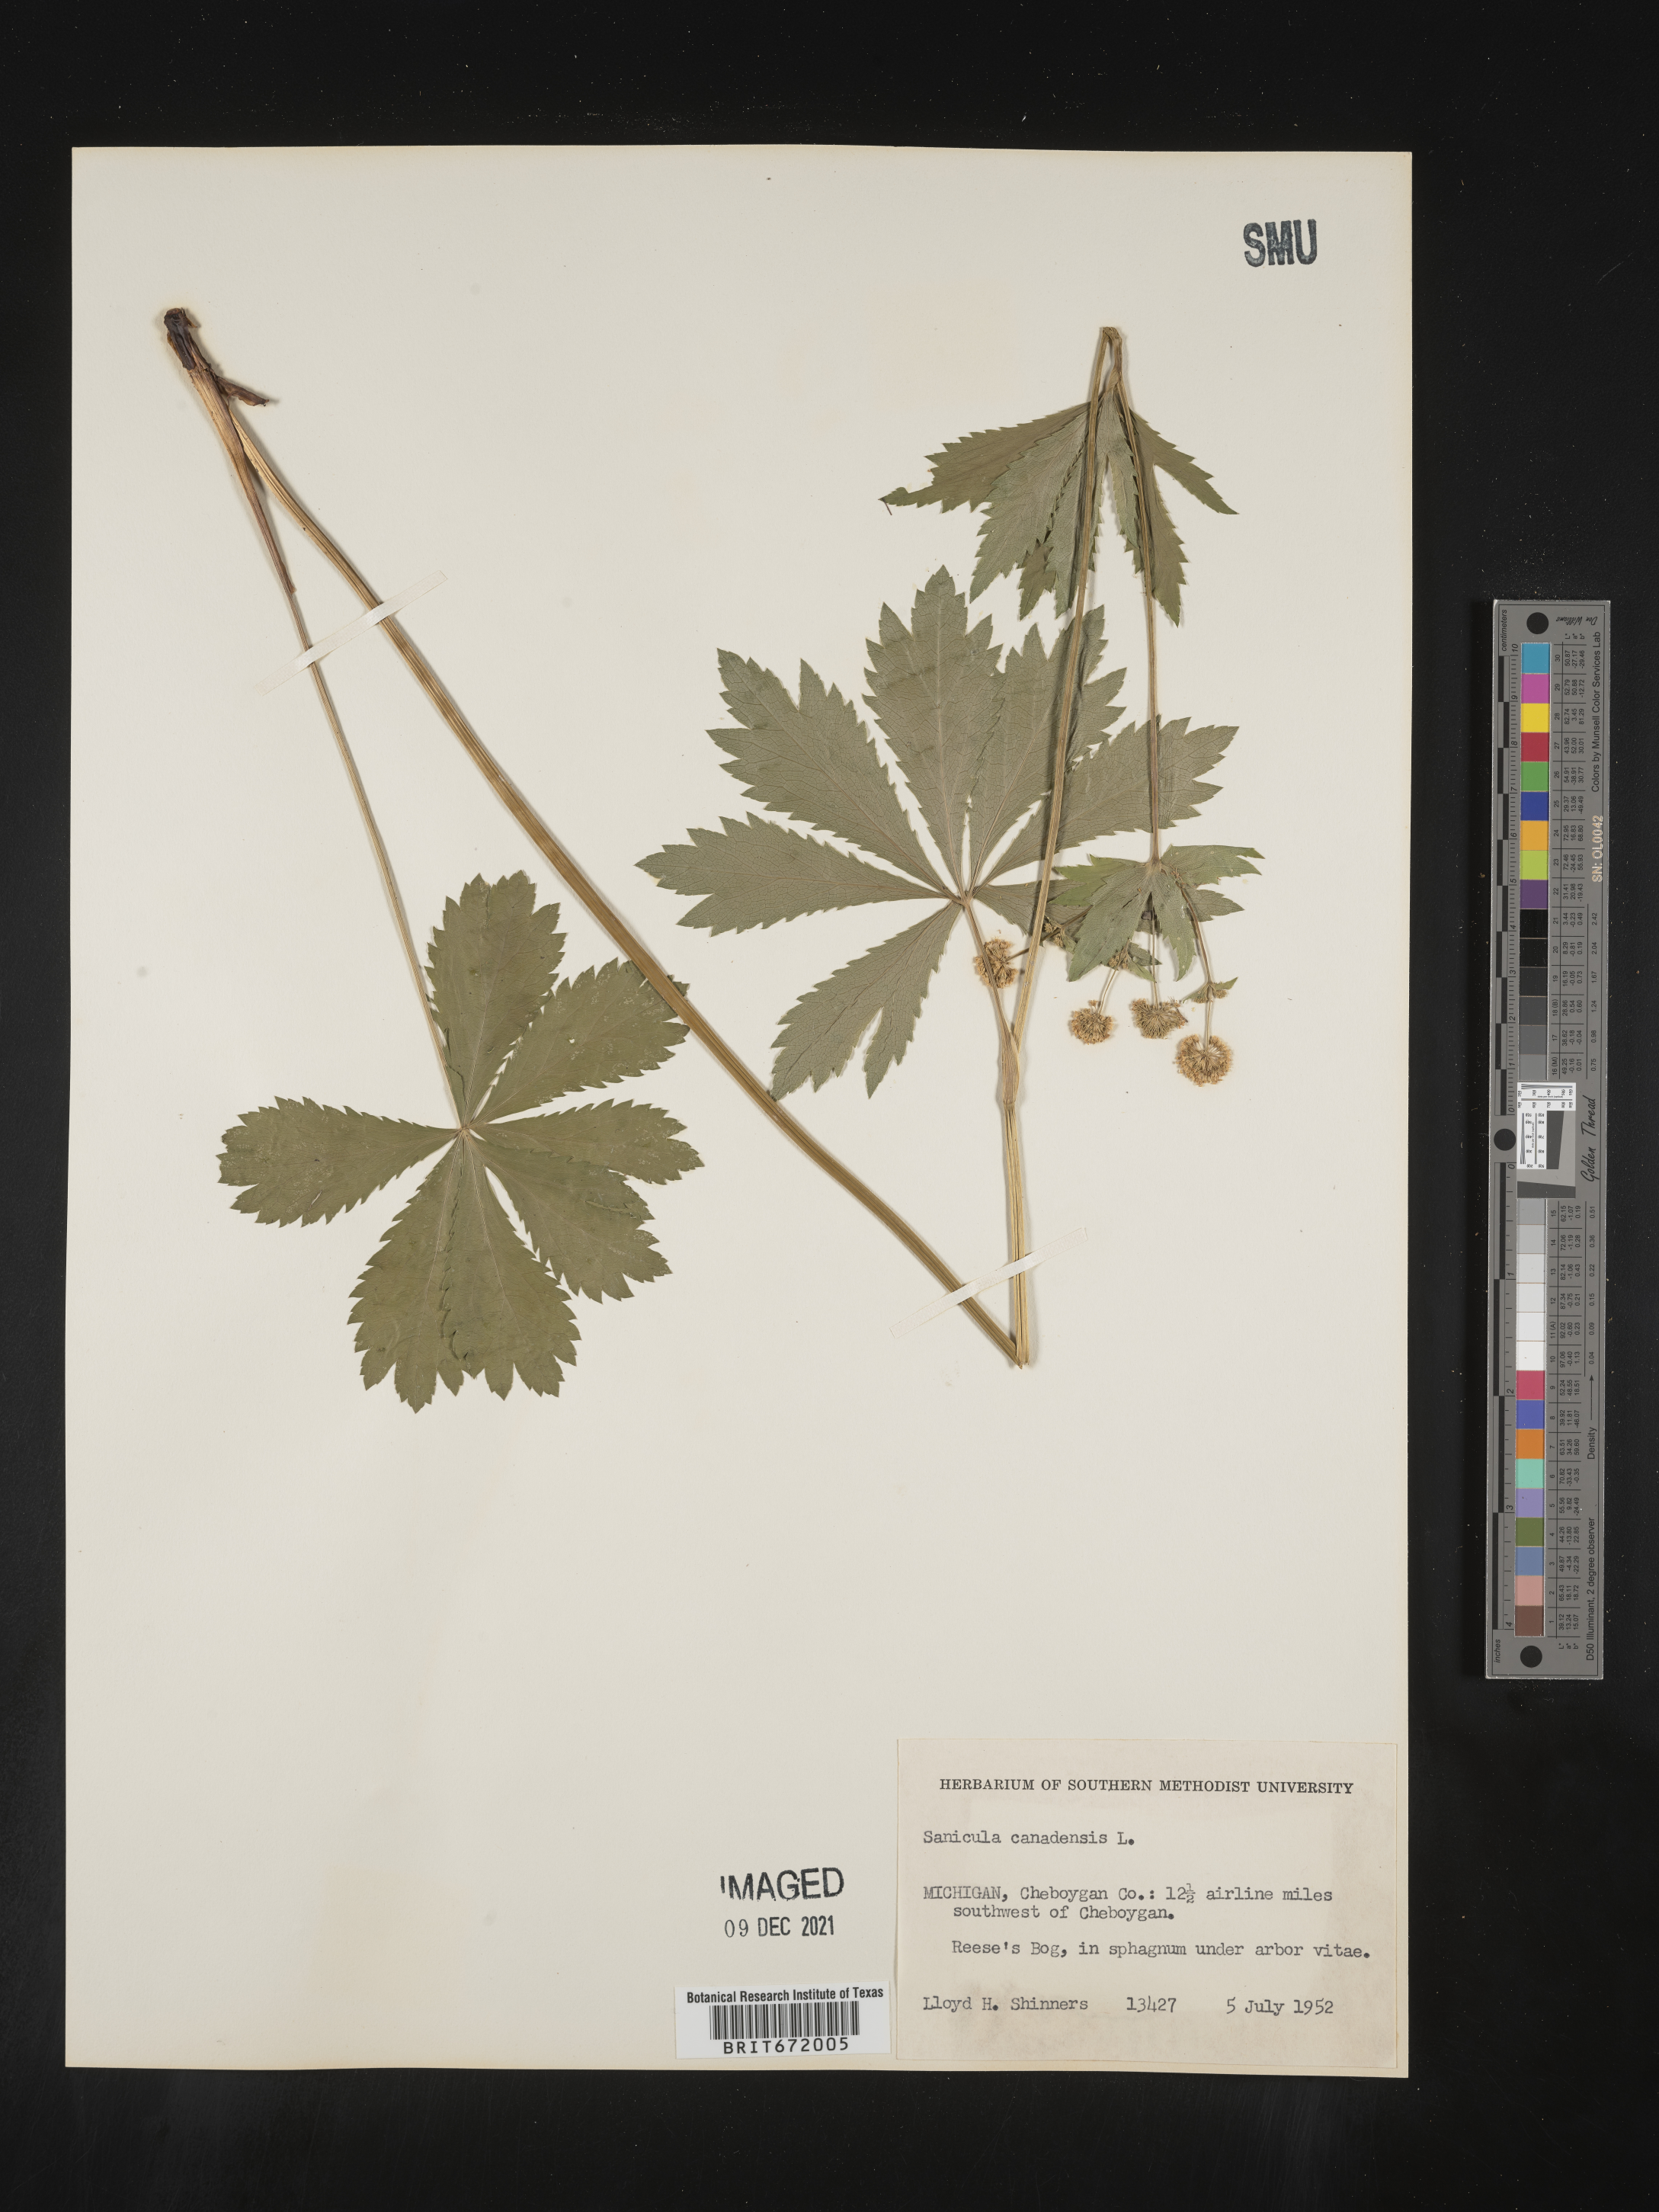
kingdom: Plantae
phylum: Tracheophyta
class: Magnoliopsida
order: Apiales
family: Apiaceae
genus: Sanicula
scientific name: Sanicula canadensis
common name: Canada sanicle
